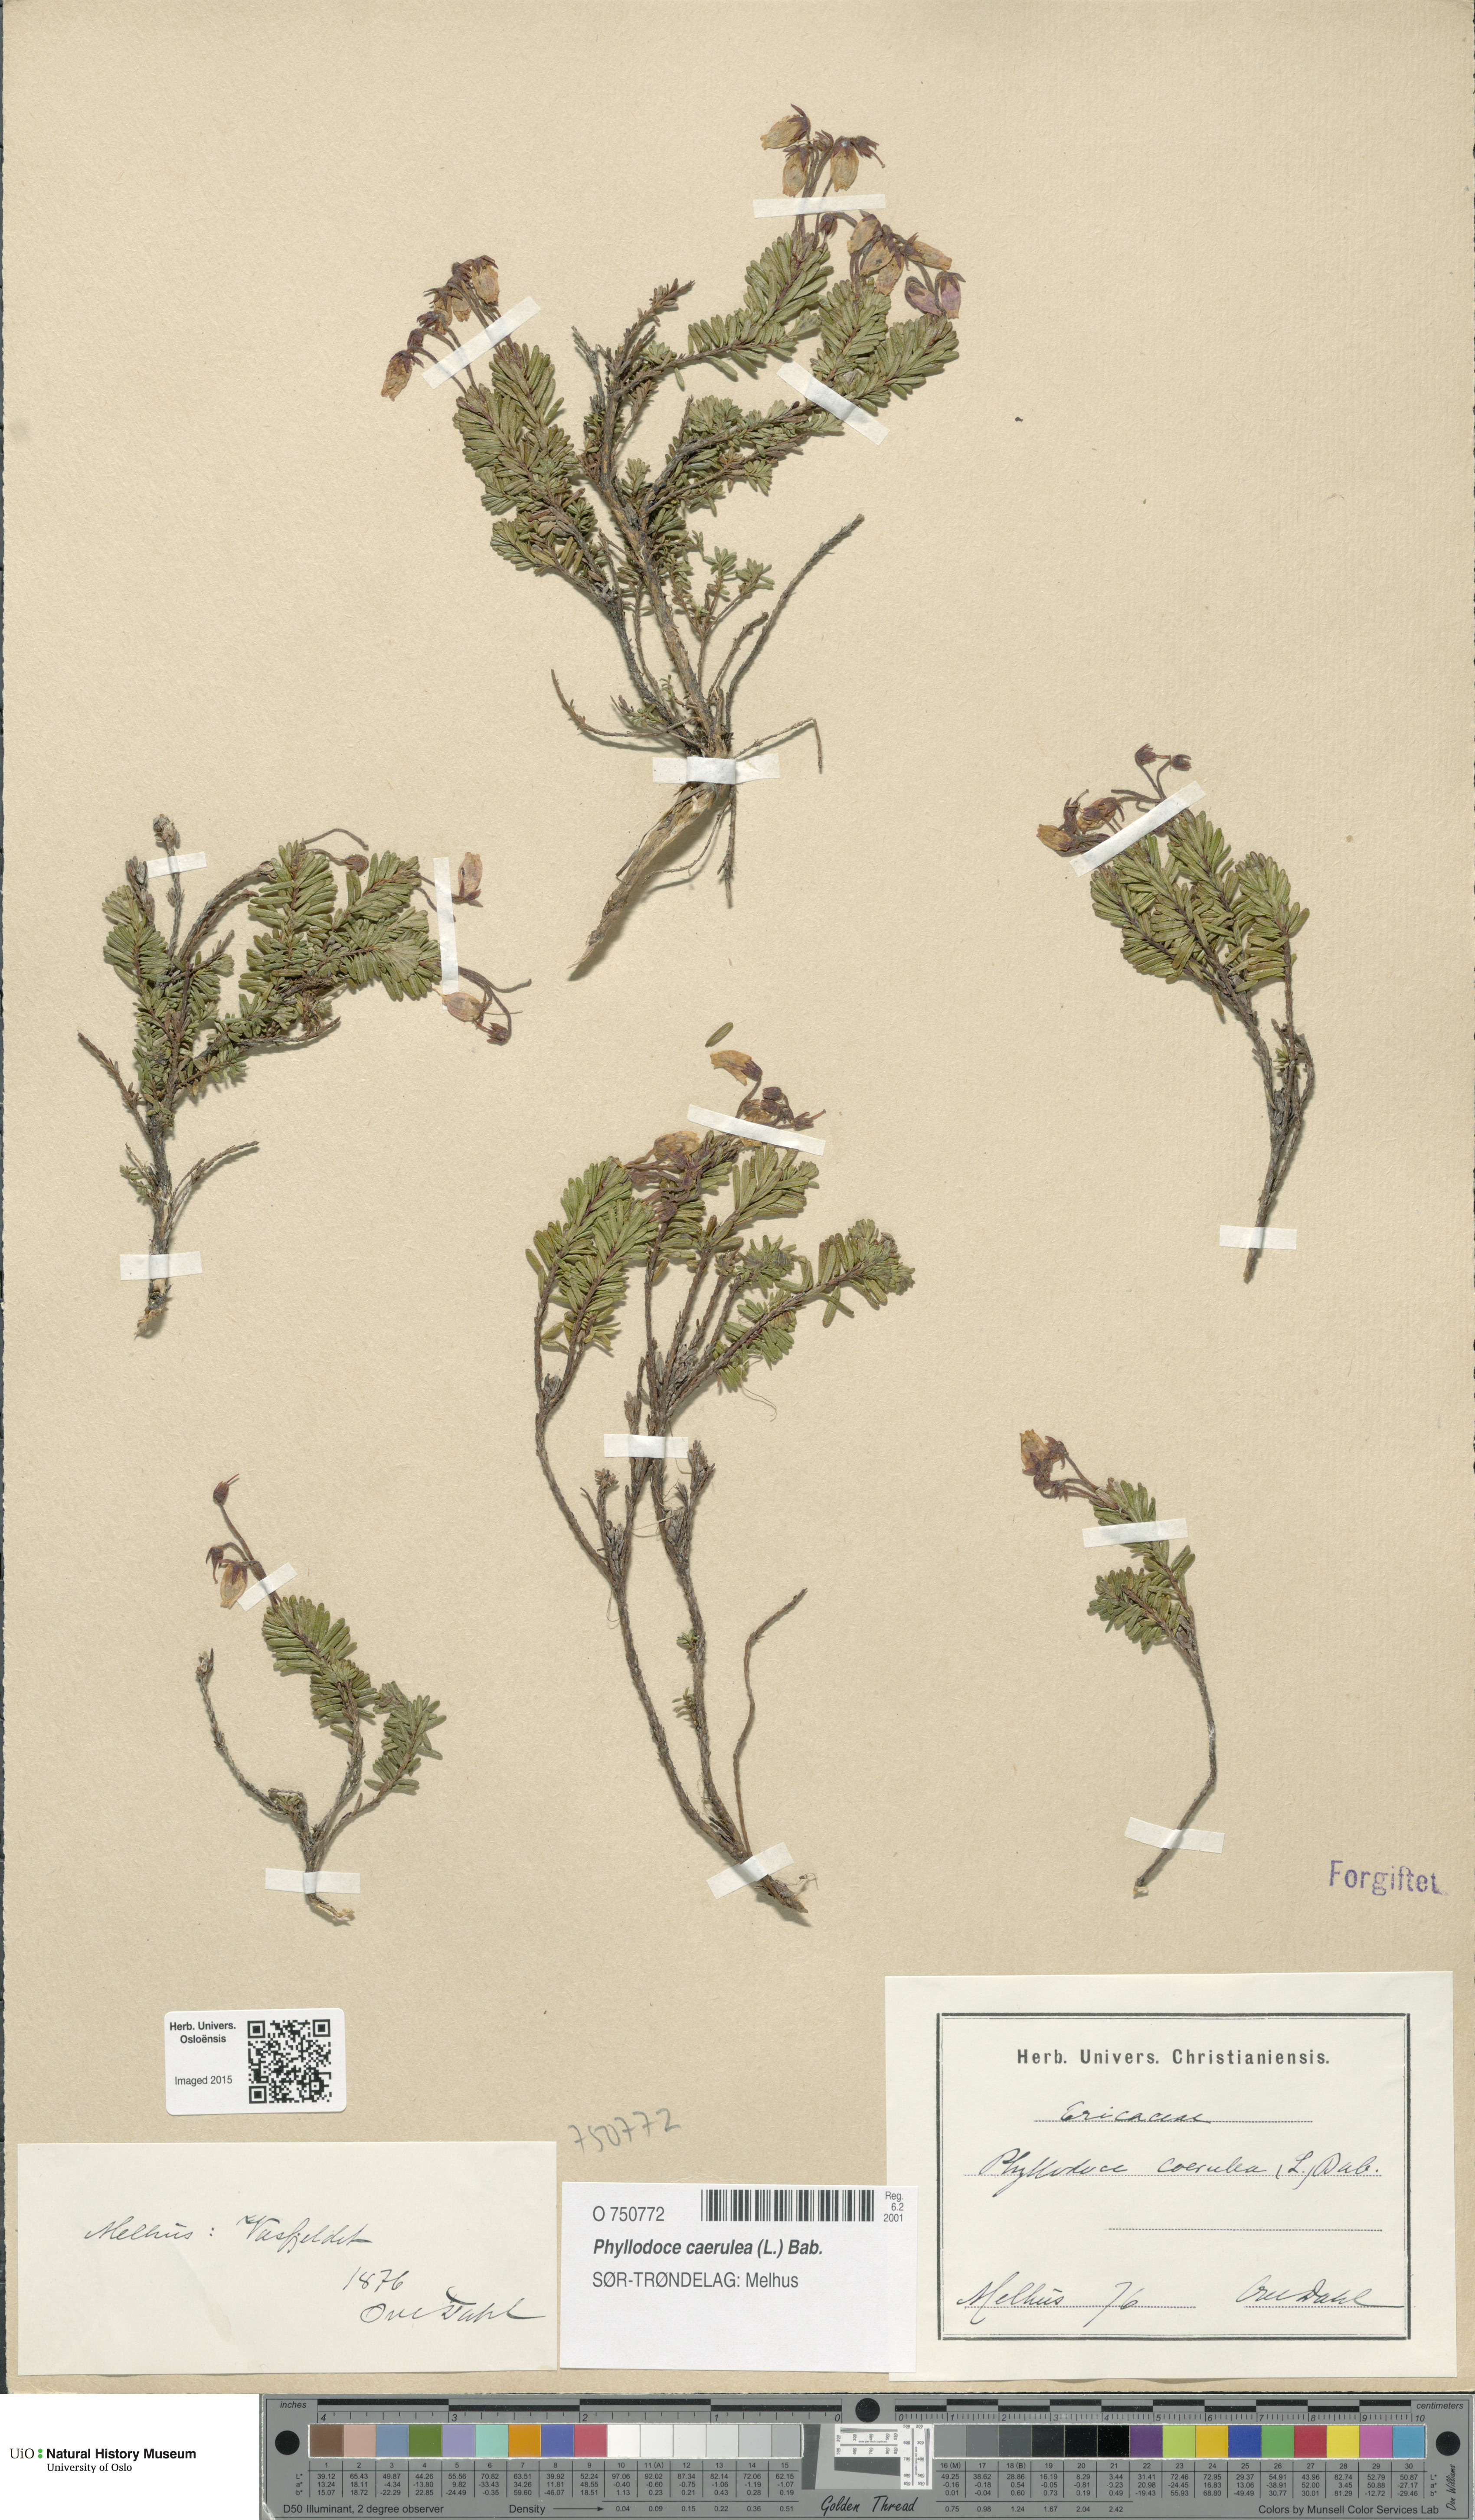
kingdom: Plantae
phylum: Tracheophyta
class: Magnoliopsida
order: Ericales
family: Ericaceae
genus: Phyllodoce
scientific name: Phyllodoce caerulea
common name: Blue heath
